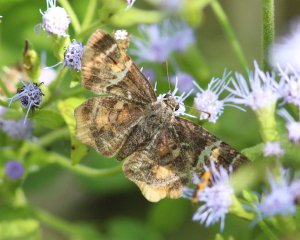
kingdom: Animalia
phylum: Arthropoda
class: Insecta
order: Lepidoptera
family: Hesperiidae
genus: Systasea
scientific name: Systasea pulverulenta
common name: Texas Powdered-Skipper
